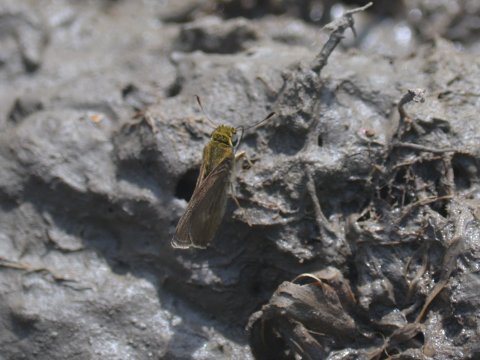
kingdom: Animalia
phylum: Arthropoda
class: Insecta
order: Lepidoptera
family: Hesperiidae
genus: Euphyes
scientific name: Euphyes vestris
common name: Dun Skipper
